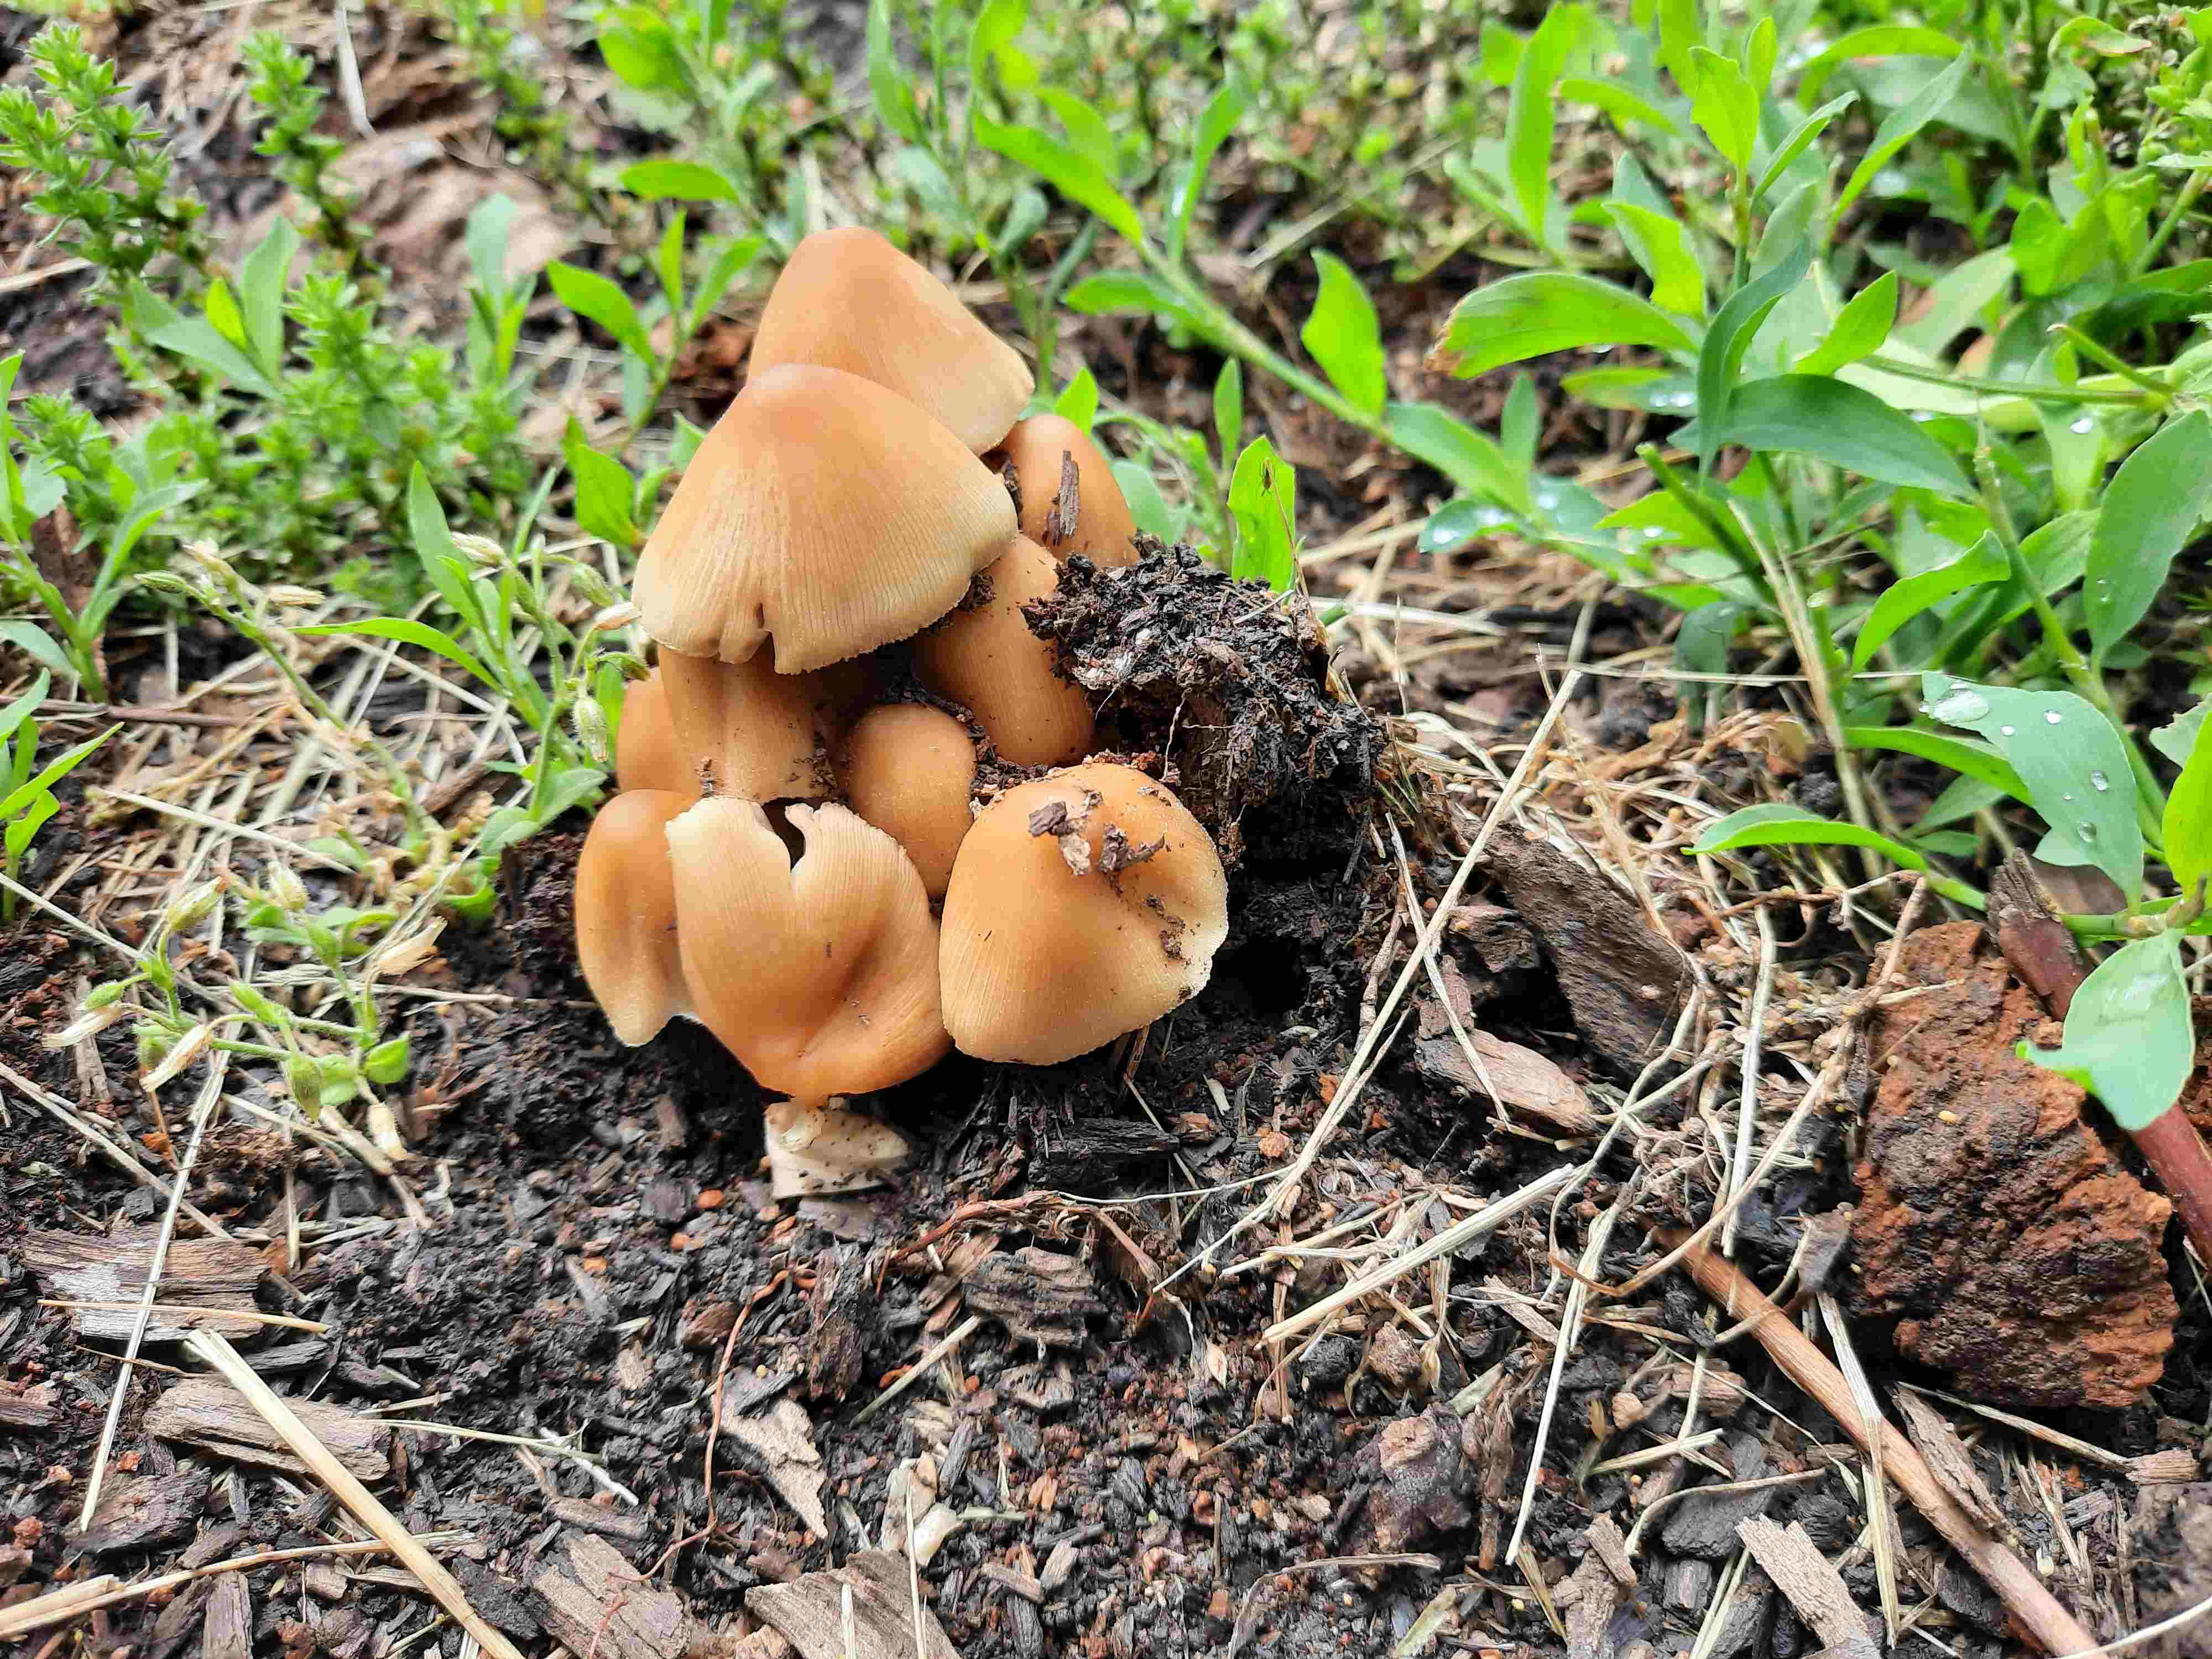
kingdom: Fungi
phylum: Basidiomycota
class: Agaricomycetes
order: Agaricales
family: Psathyrellaceae
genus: Coprinellus
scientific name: Coprinellus
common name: blækhat
